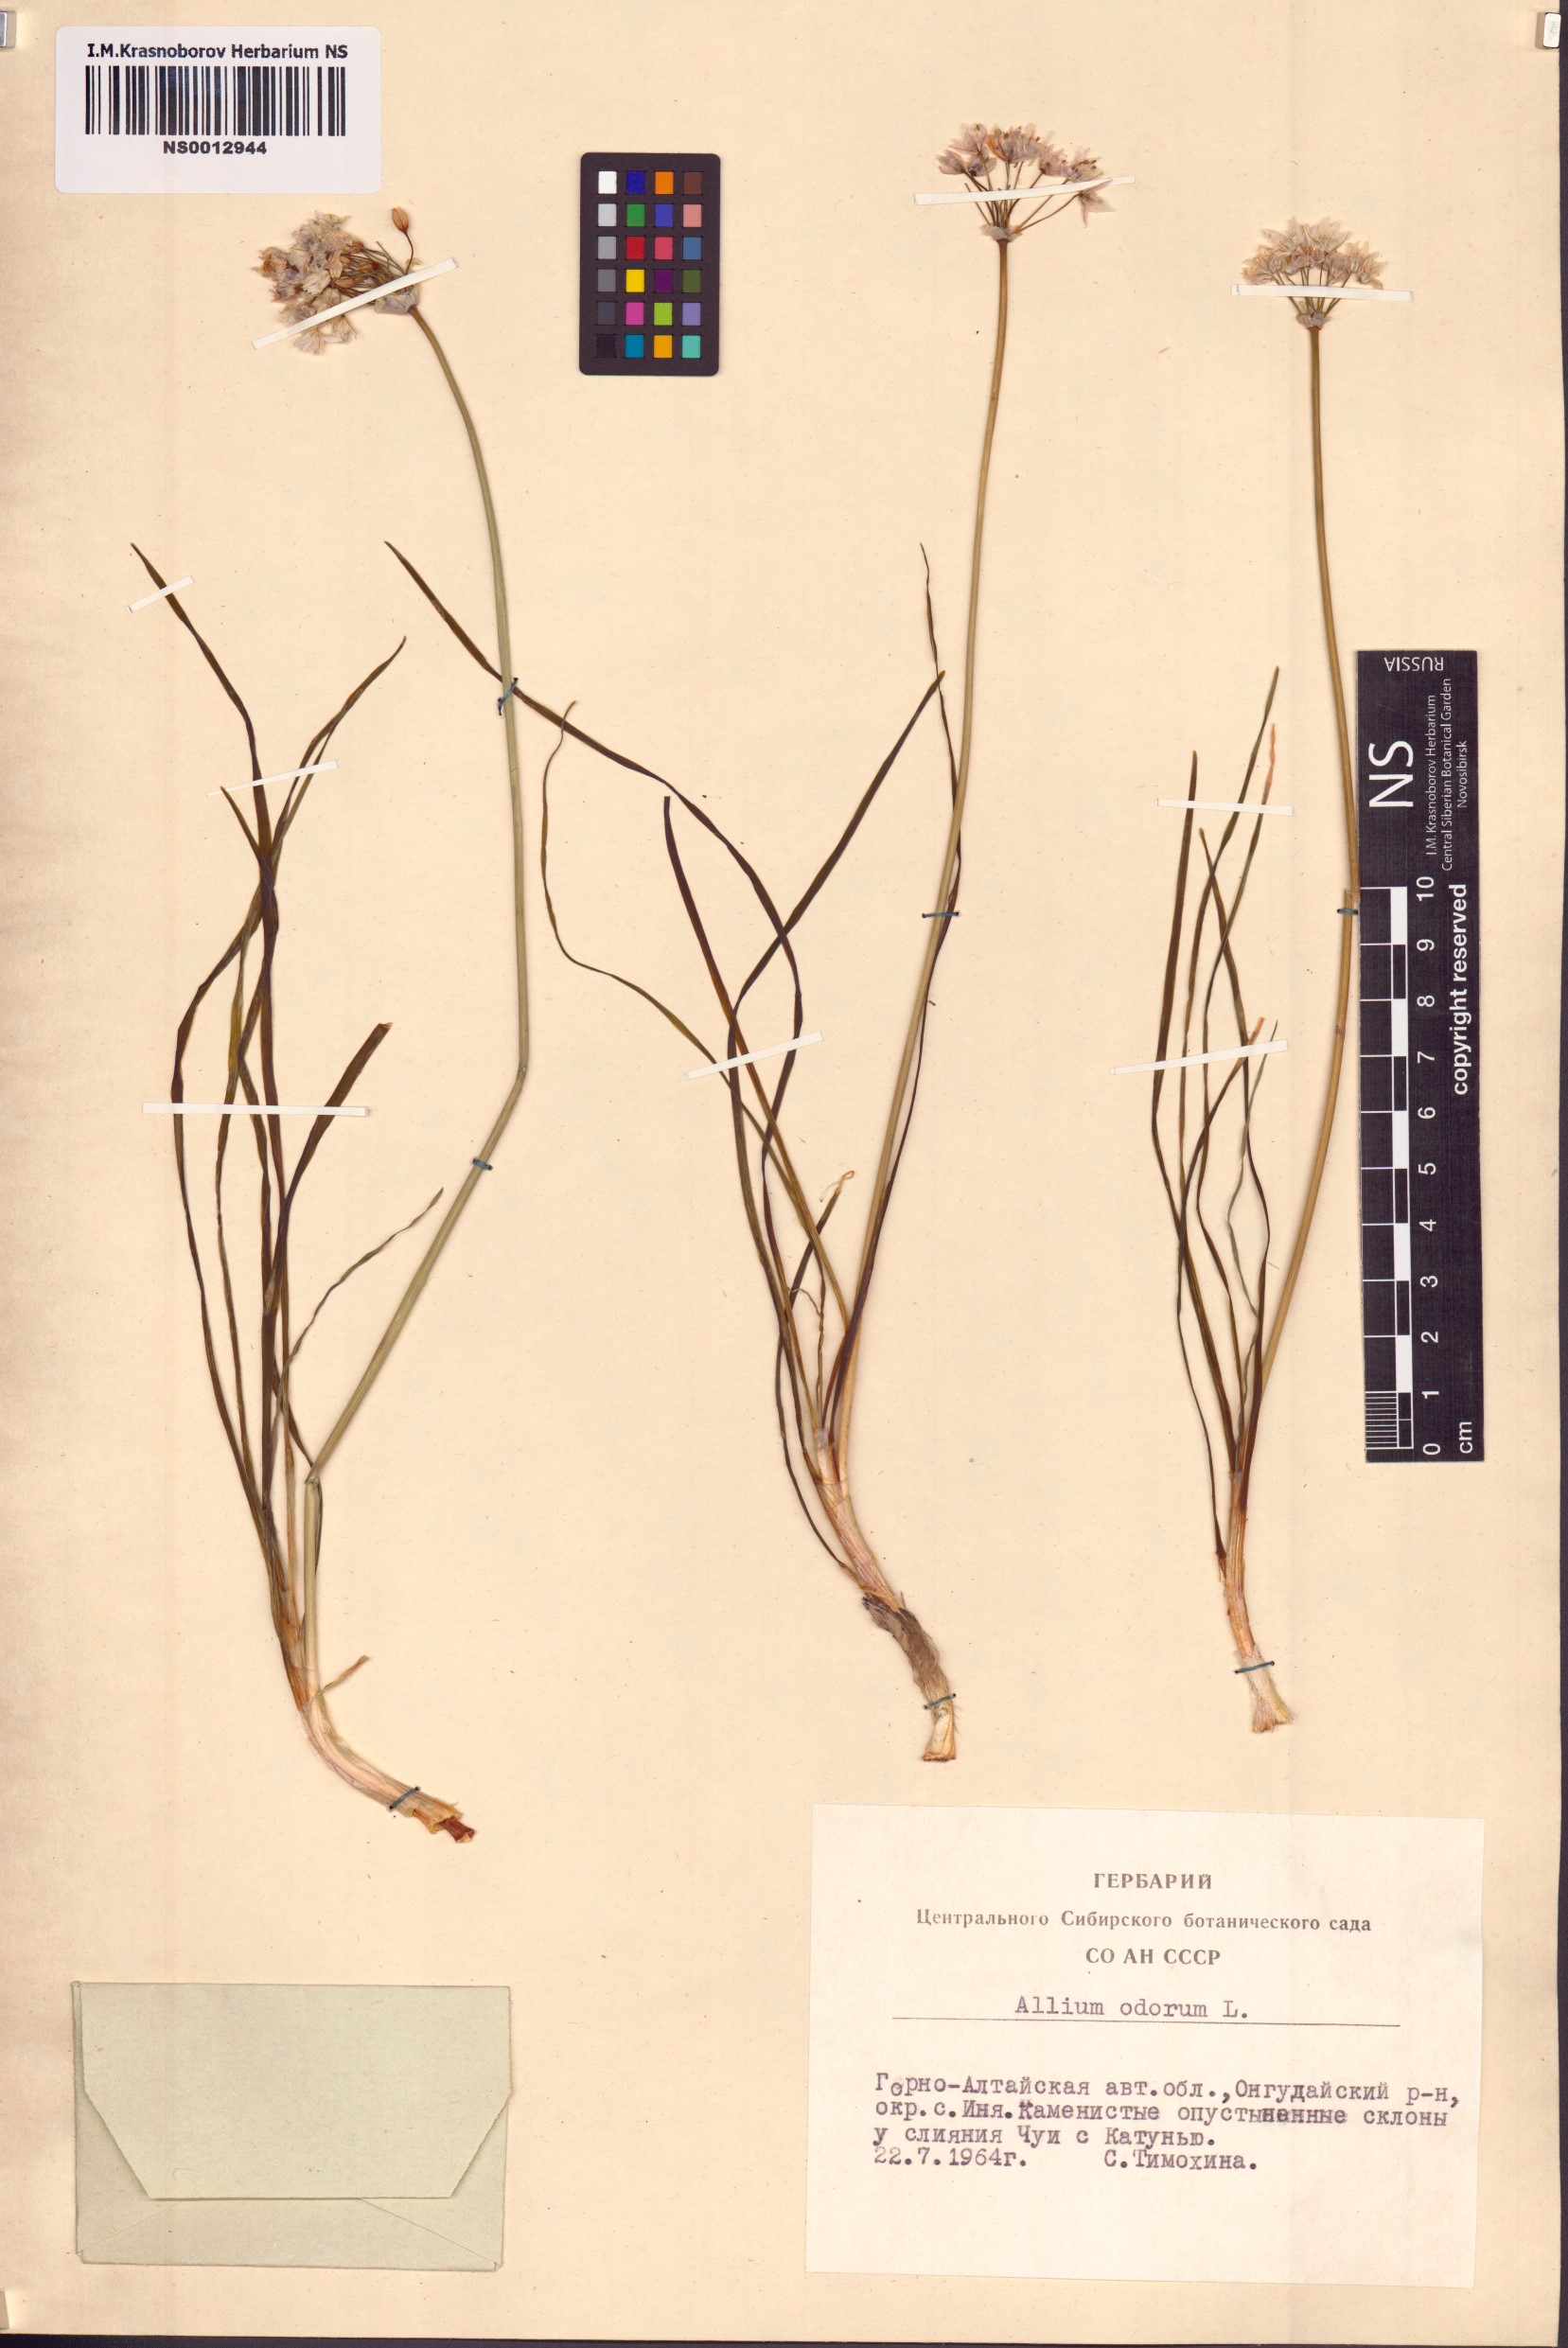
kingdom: Plantae
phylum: Tracheophyta
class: Liliopsida
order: Asparagales
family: Amaryllidaceae
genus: Allium
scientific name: Allium ramosum
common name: Fragrant garlic
